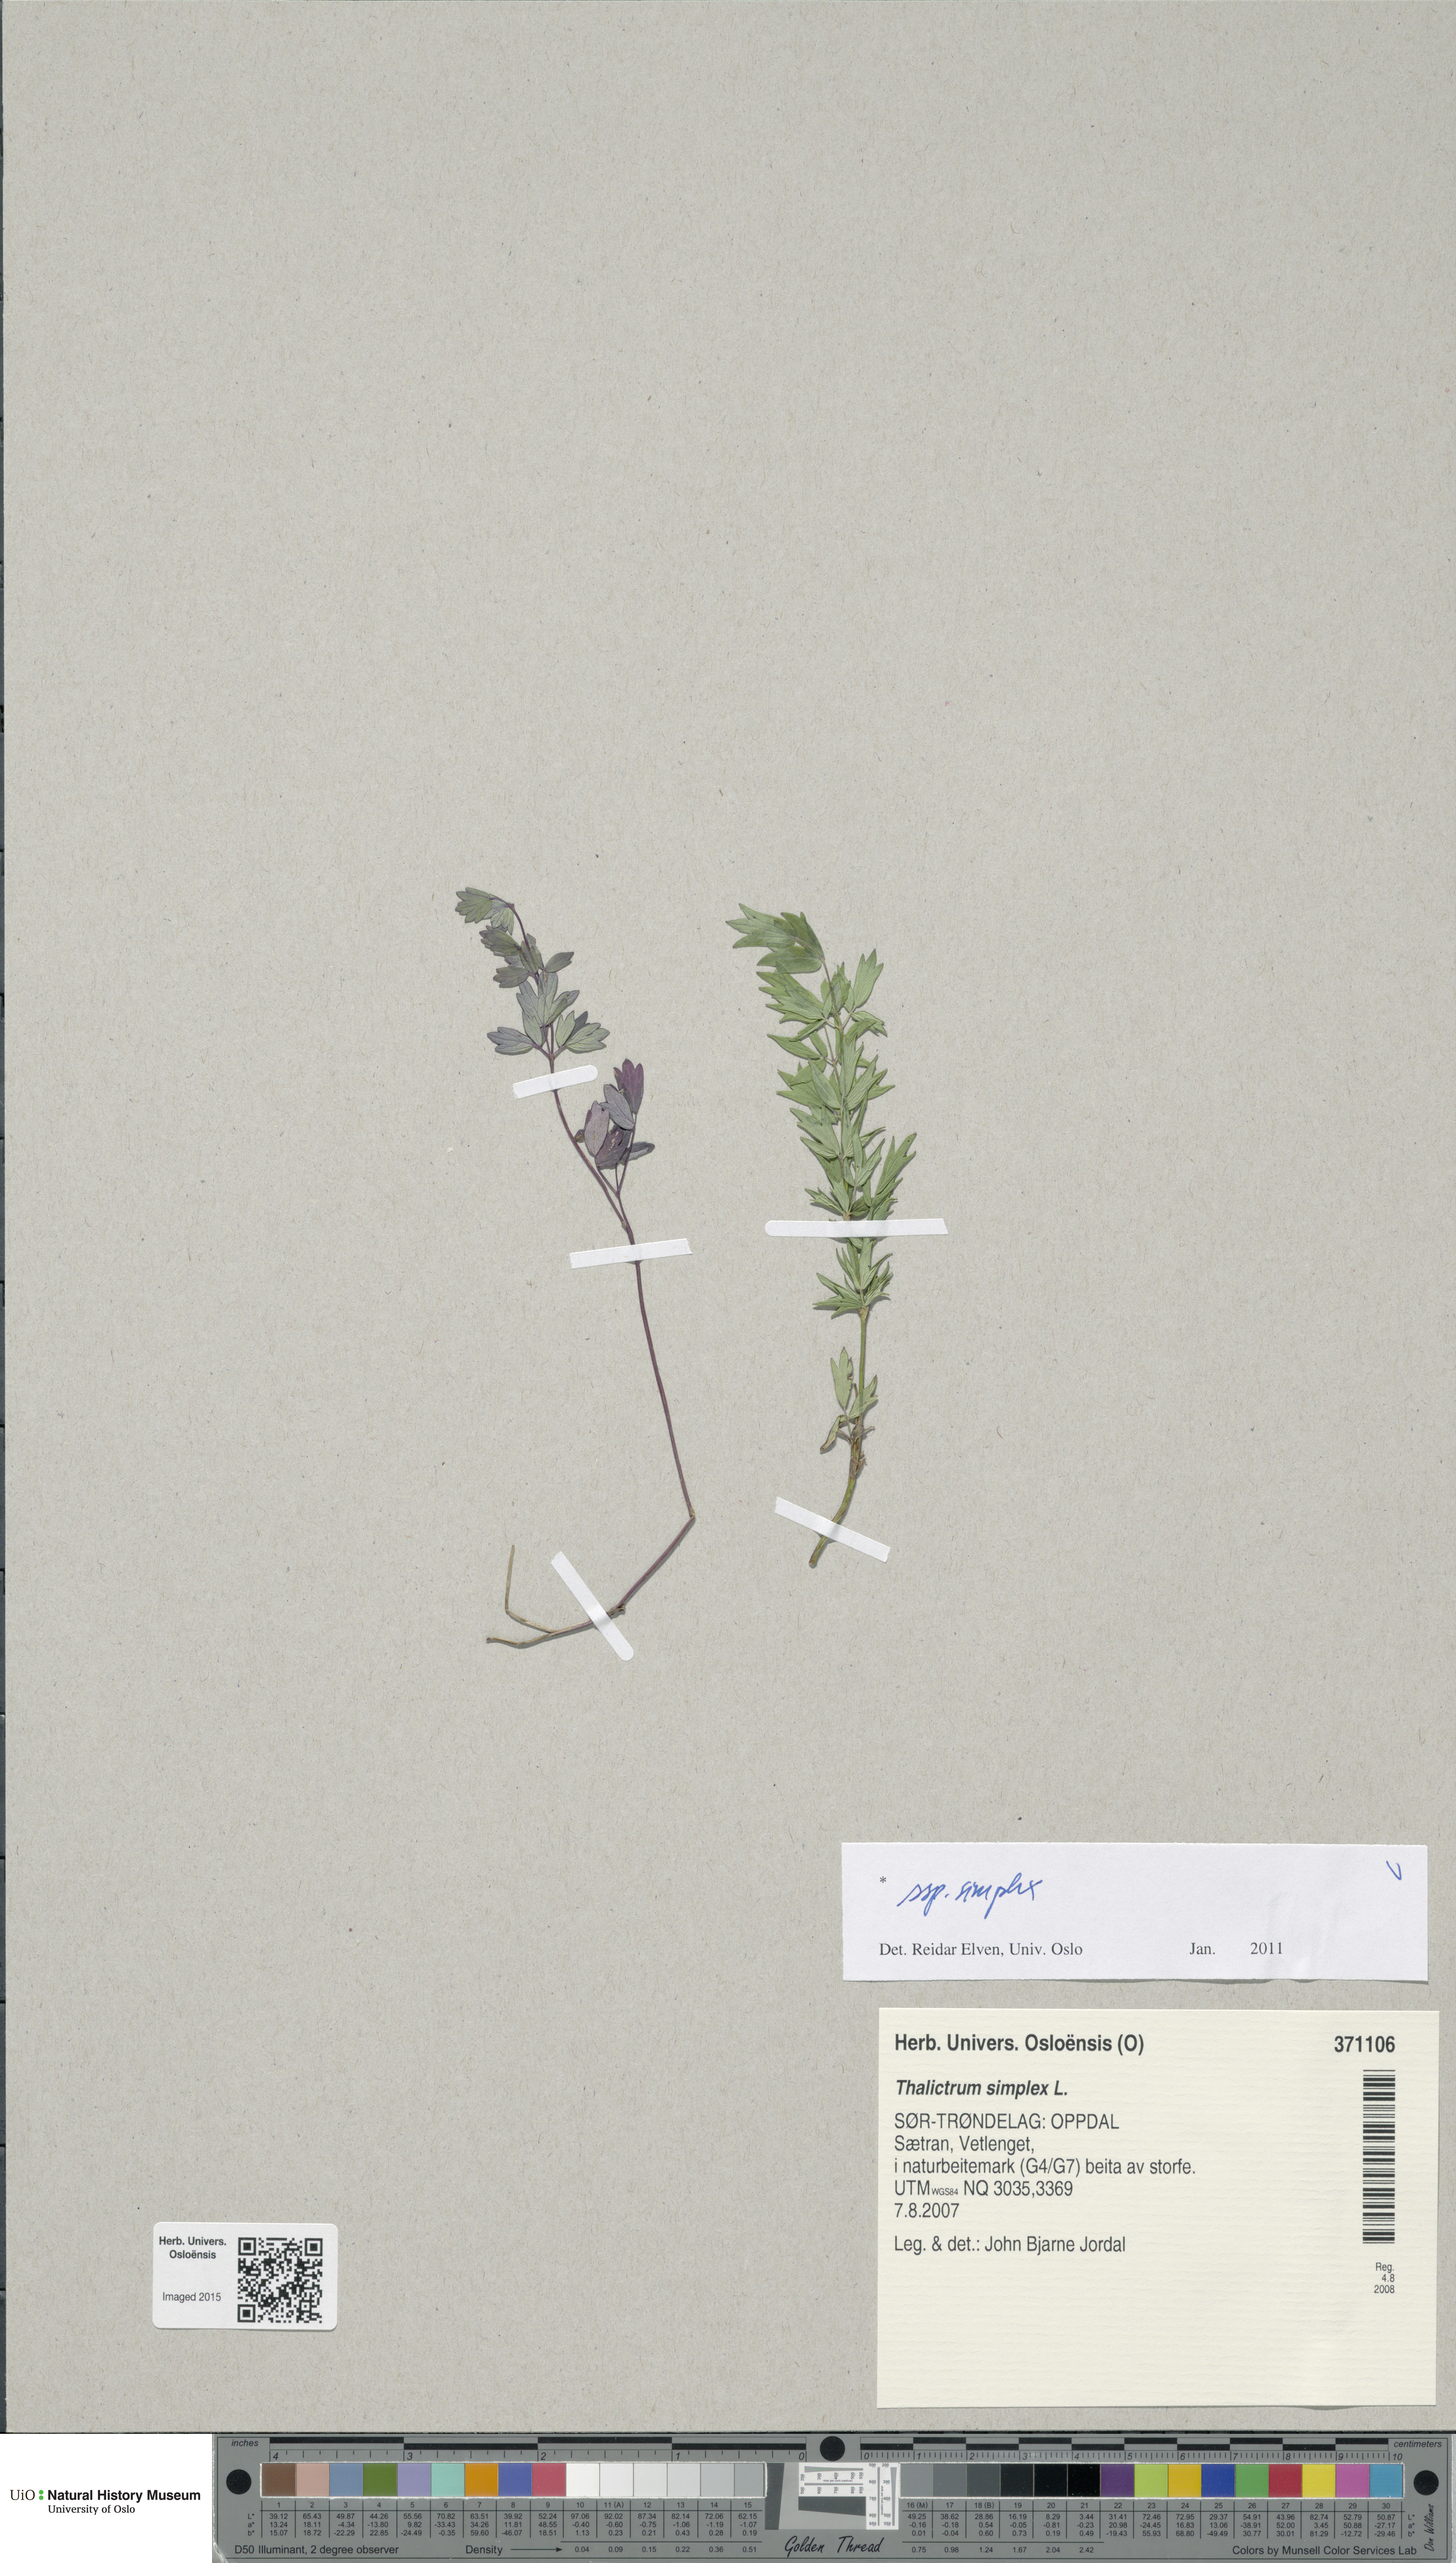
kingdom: Plantae
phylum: Tracheophyta
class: Magnoliopsida
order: Ranunculales
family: Ranunculaceae
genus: Thalictrum
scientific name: Thalictrum simplex
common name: Small meadow-rue
